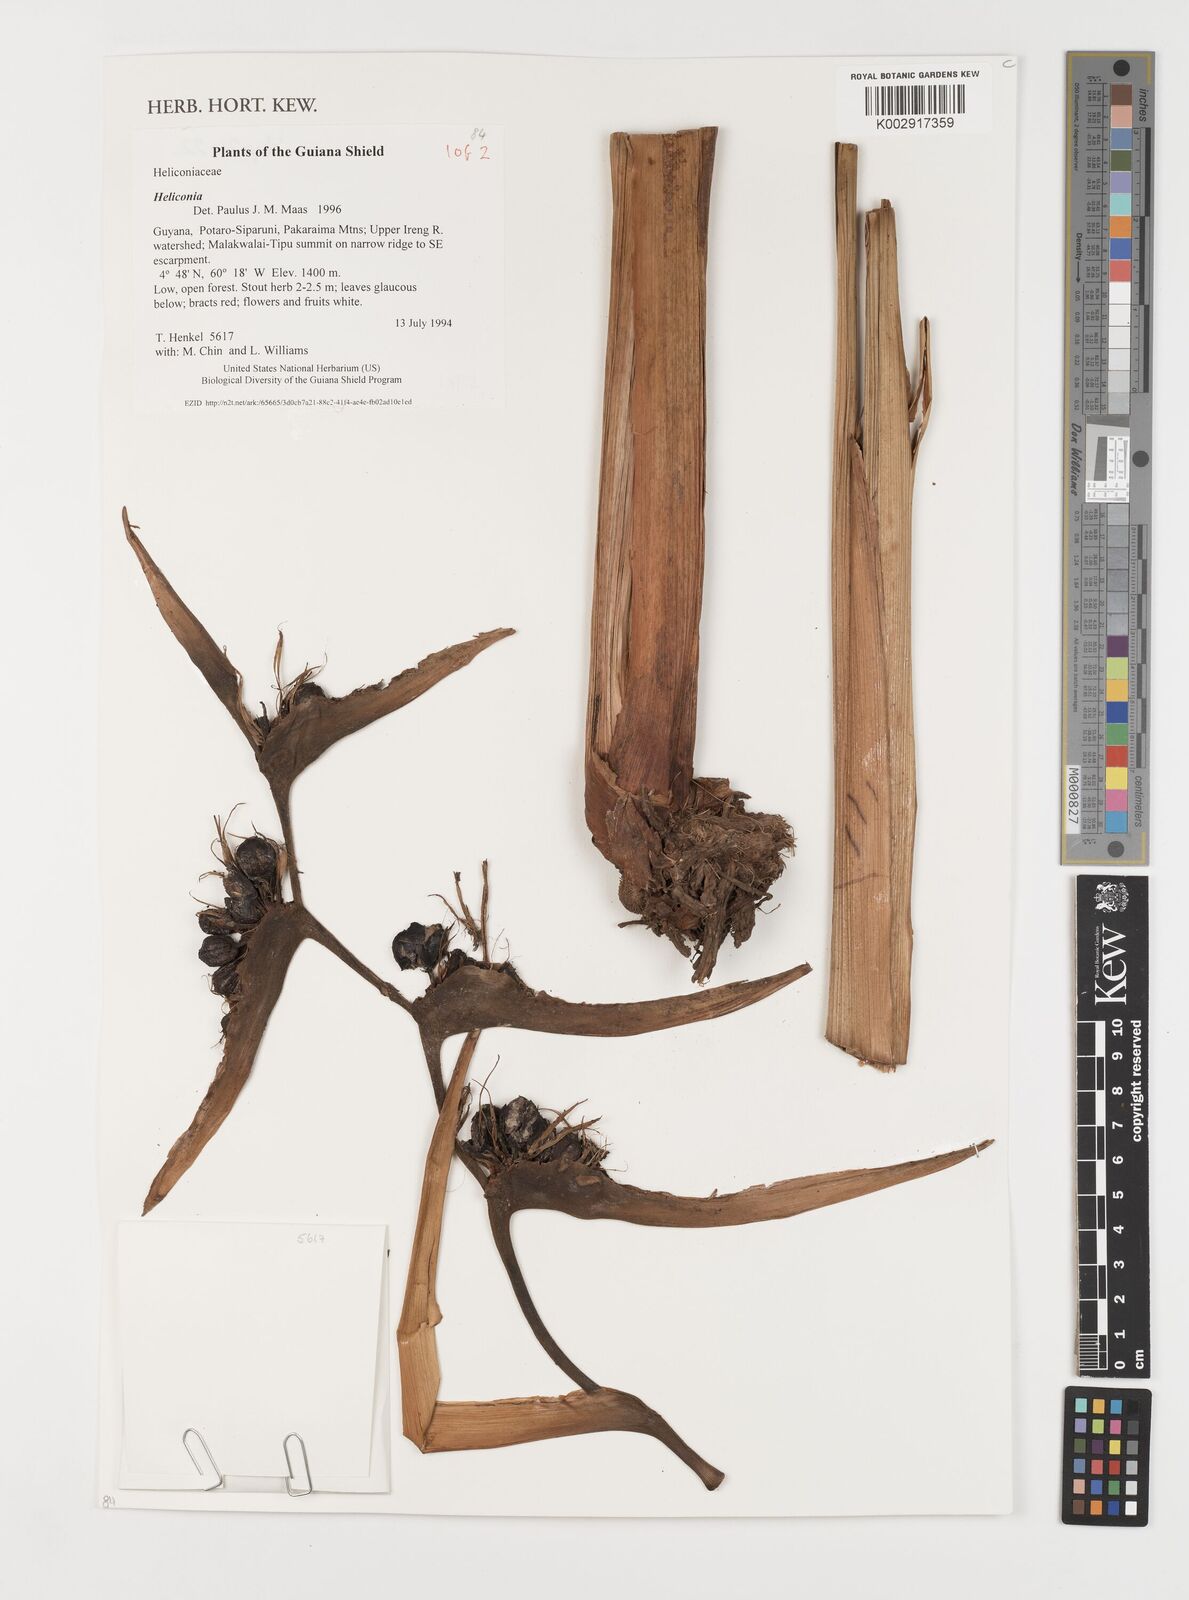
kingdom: Plantae
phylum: Tracheophyta
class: Liliopsida
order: Zingiberales
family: Heliconiaceae
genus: Heliconia
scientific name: Heliconia
